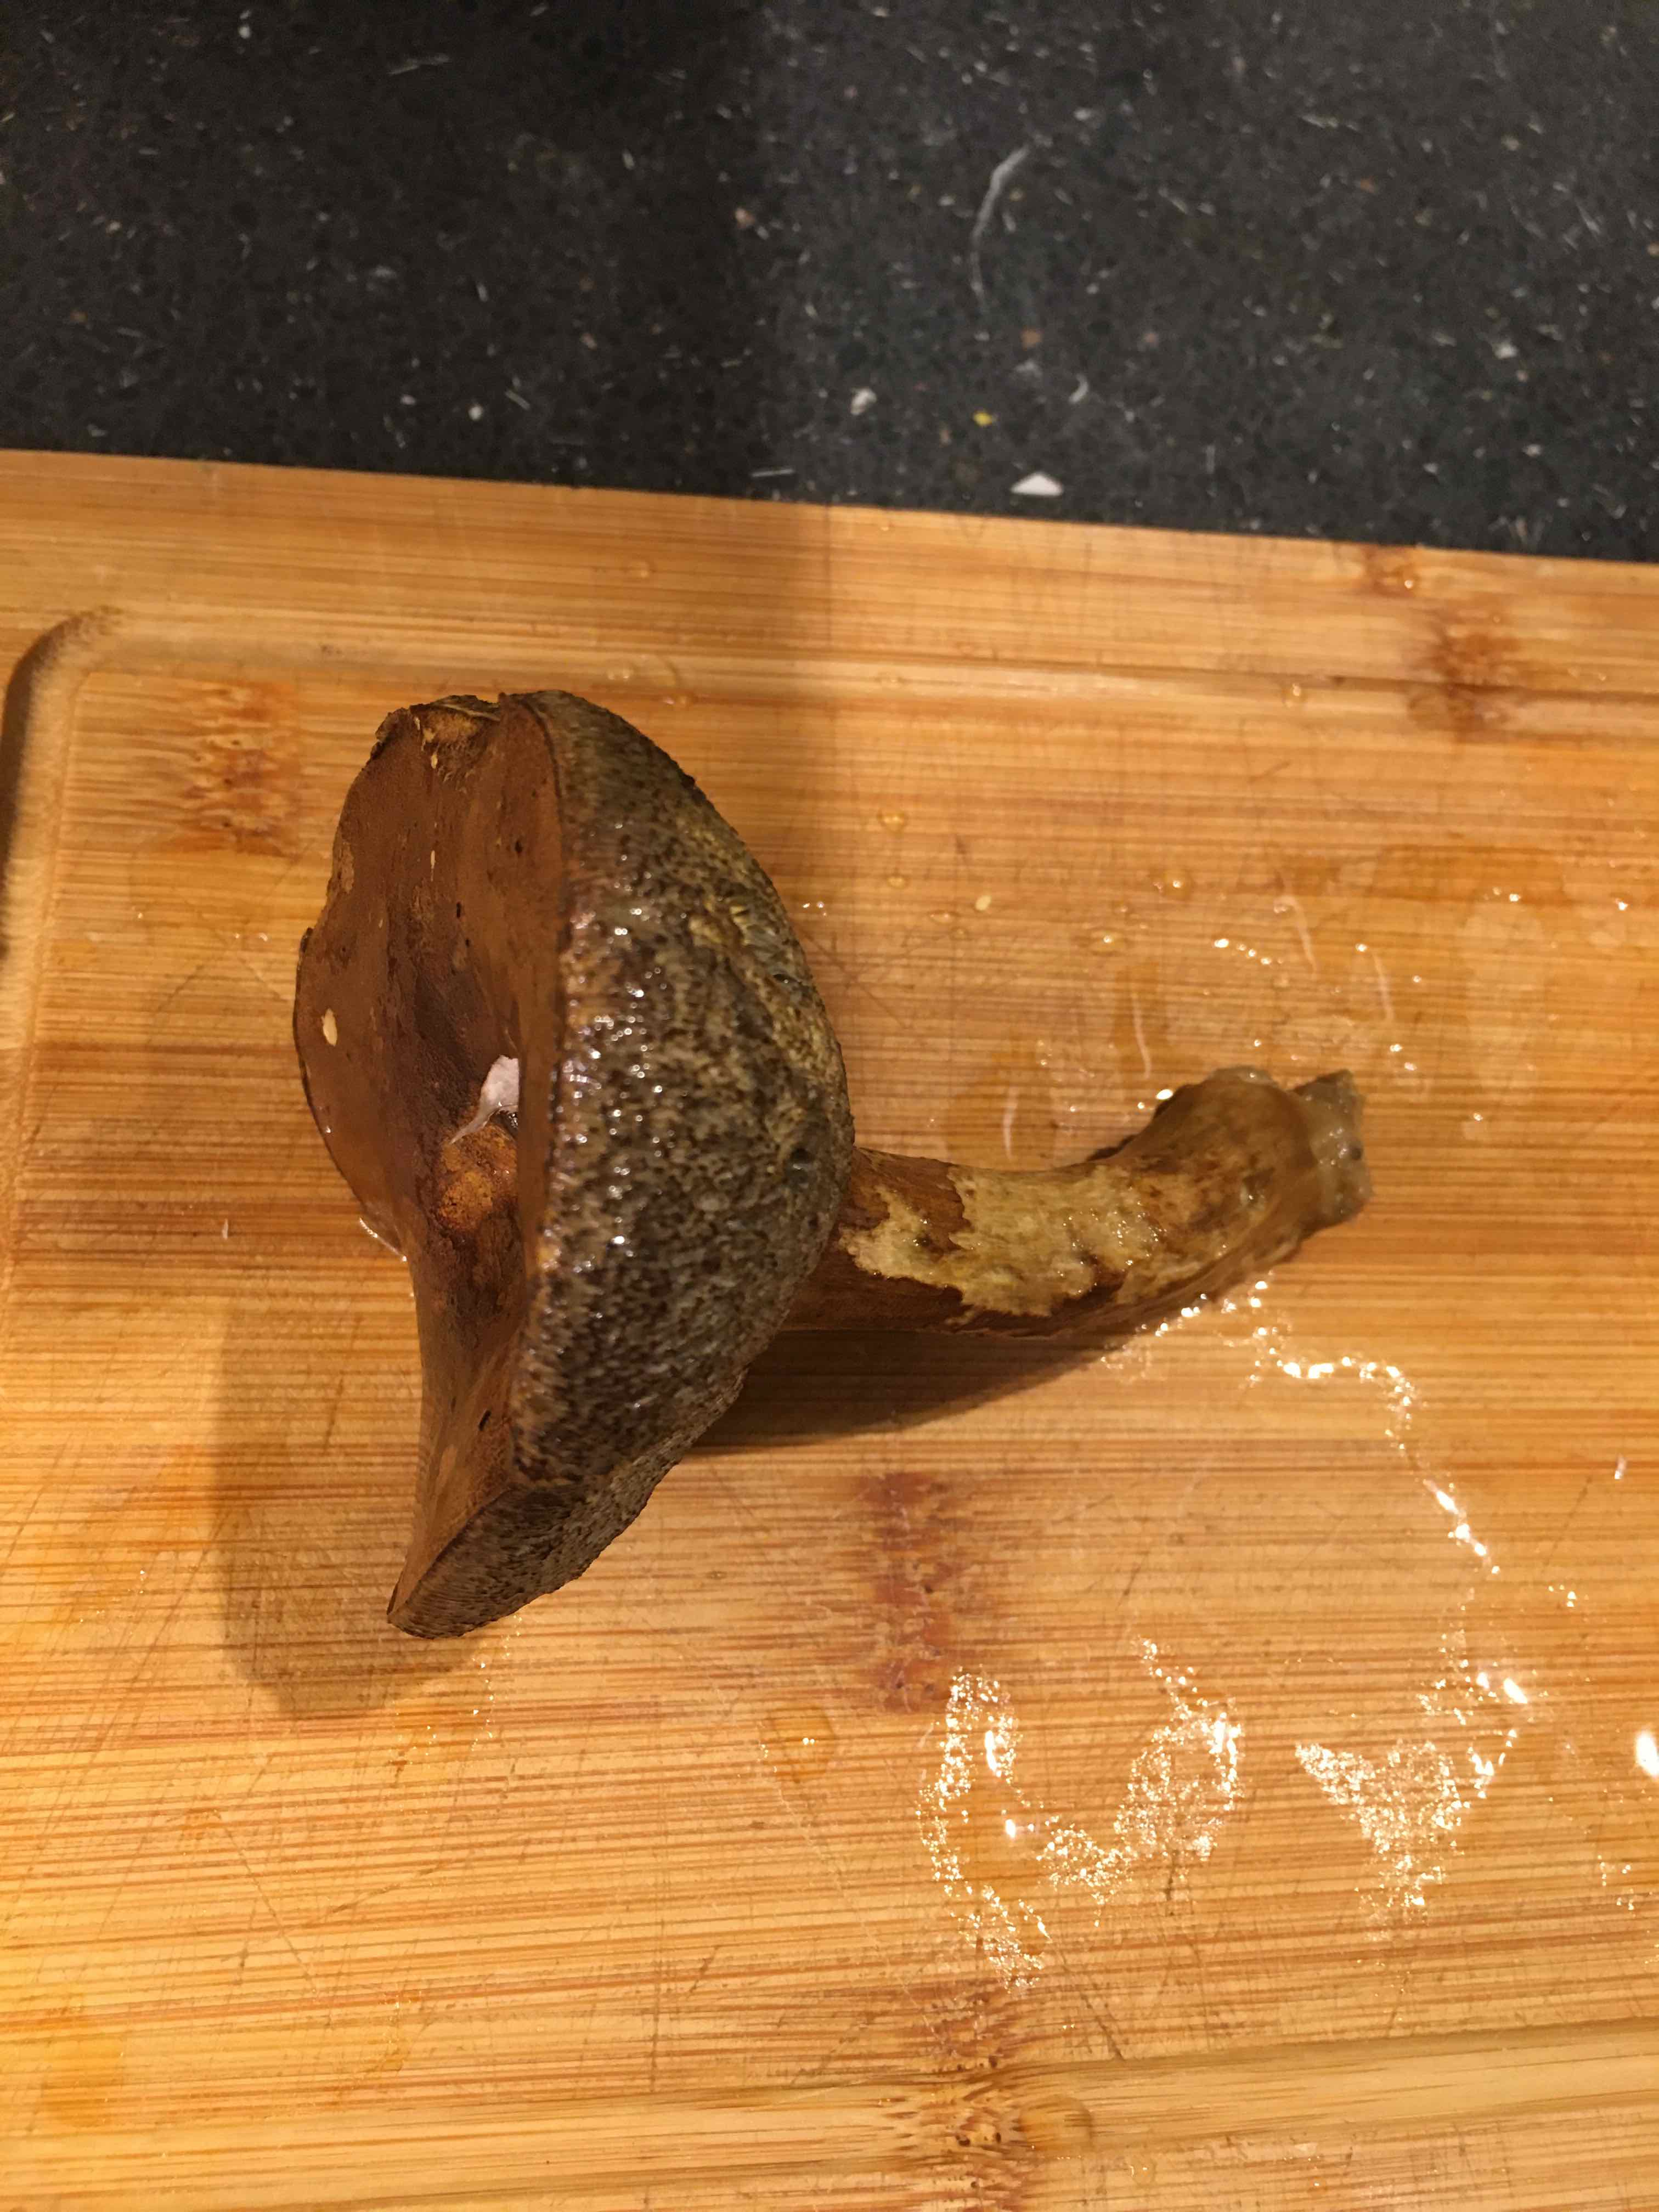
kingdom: Fungi
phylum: Basidiomycota
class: Agaricomycetes
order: Boletales
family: Boletaceae
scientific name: Boletaceae
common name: rørhatfamilien
